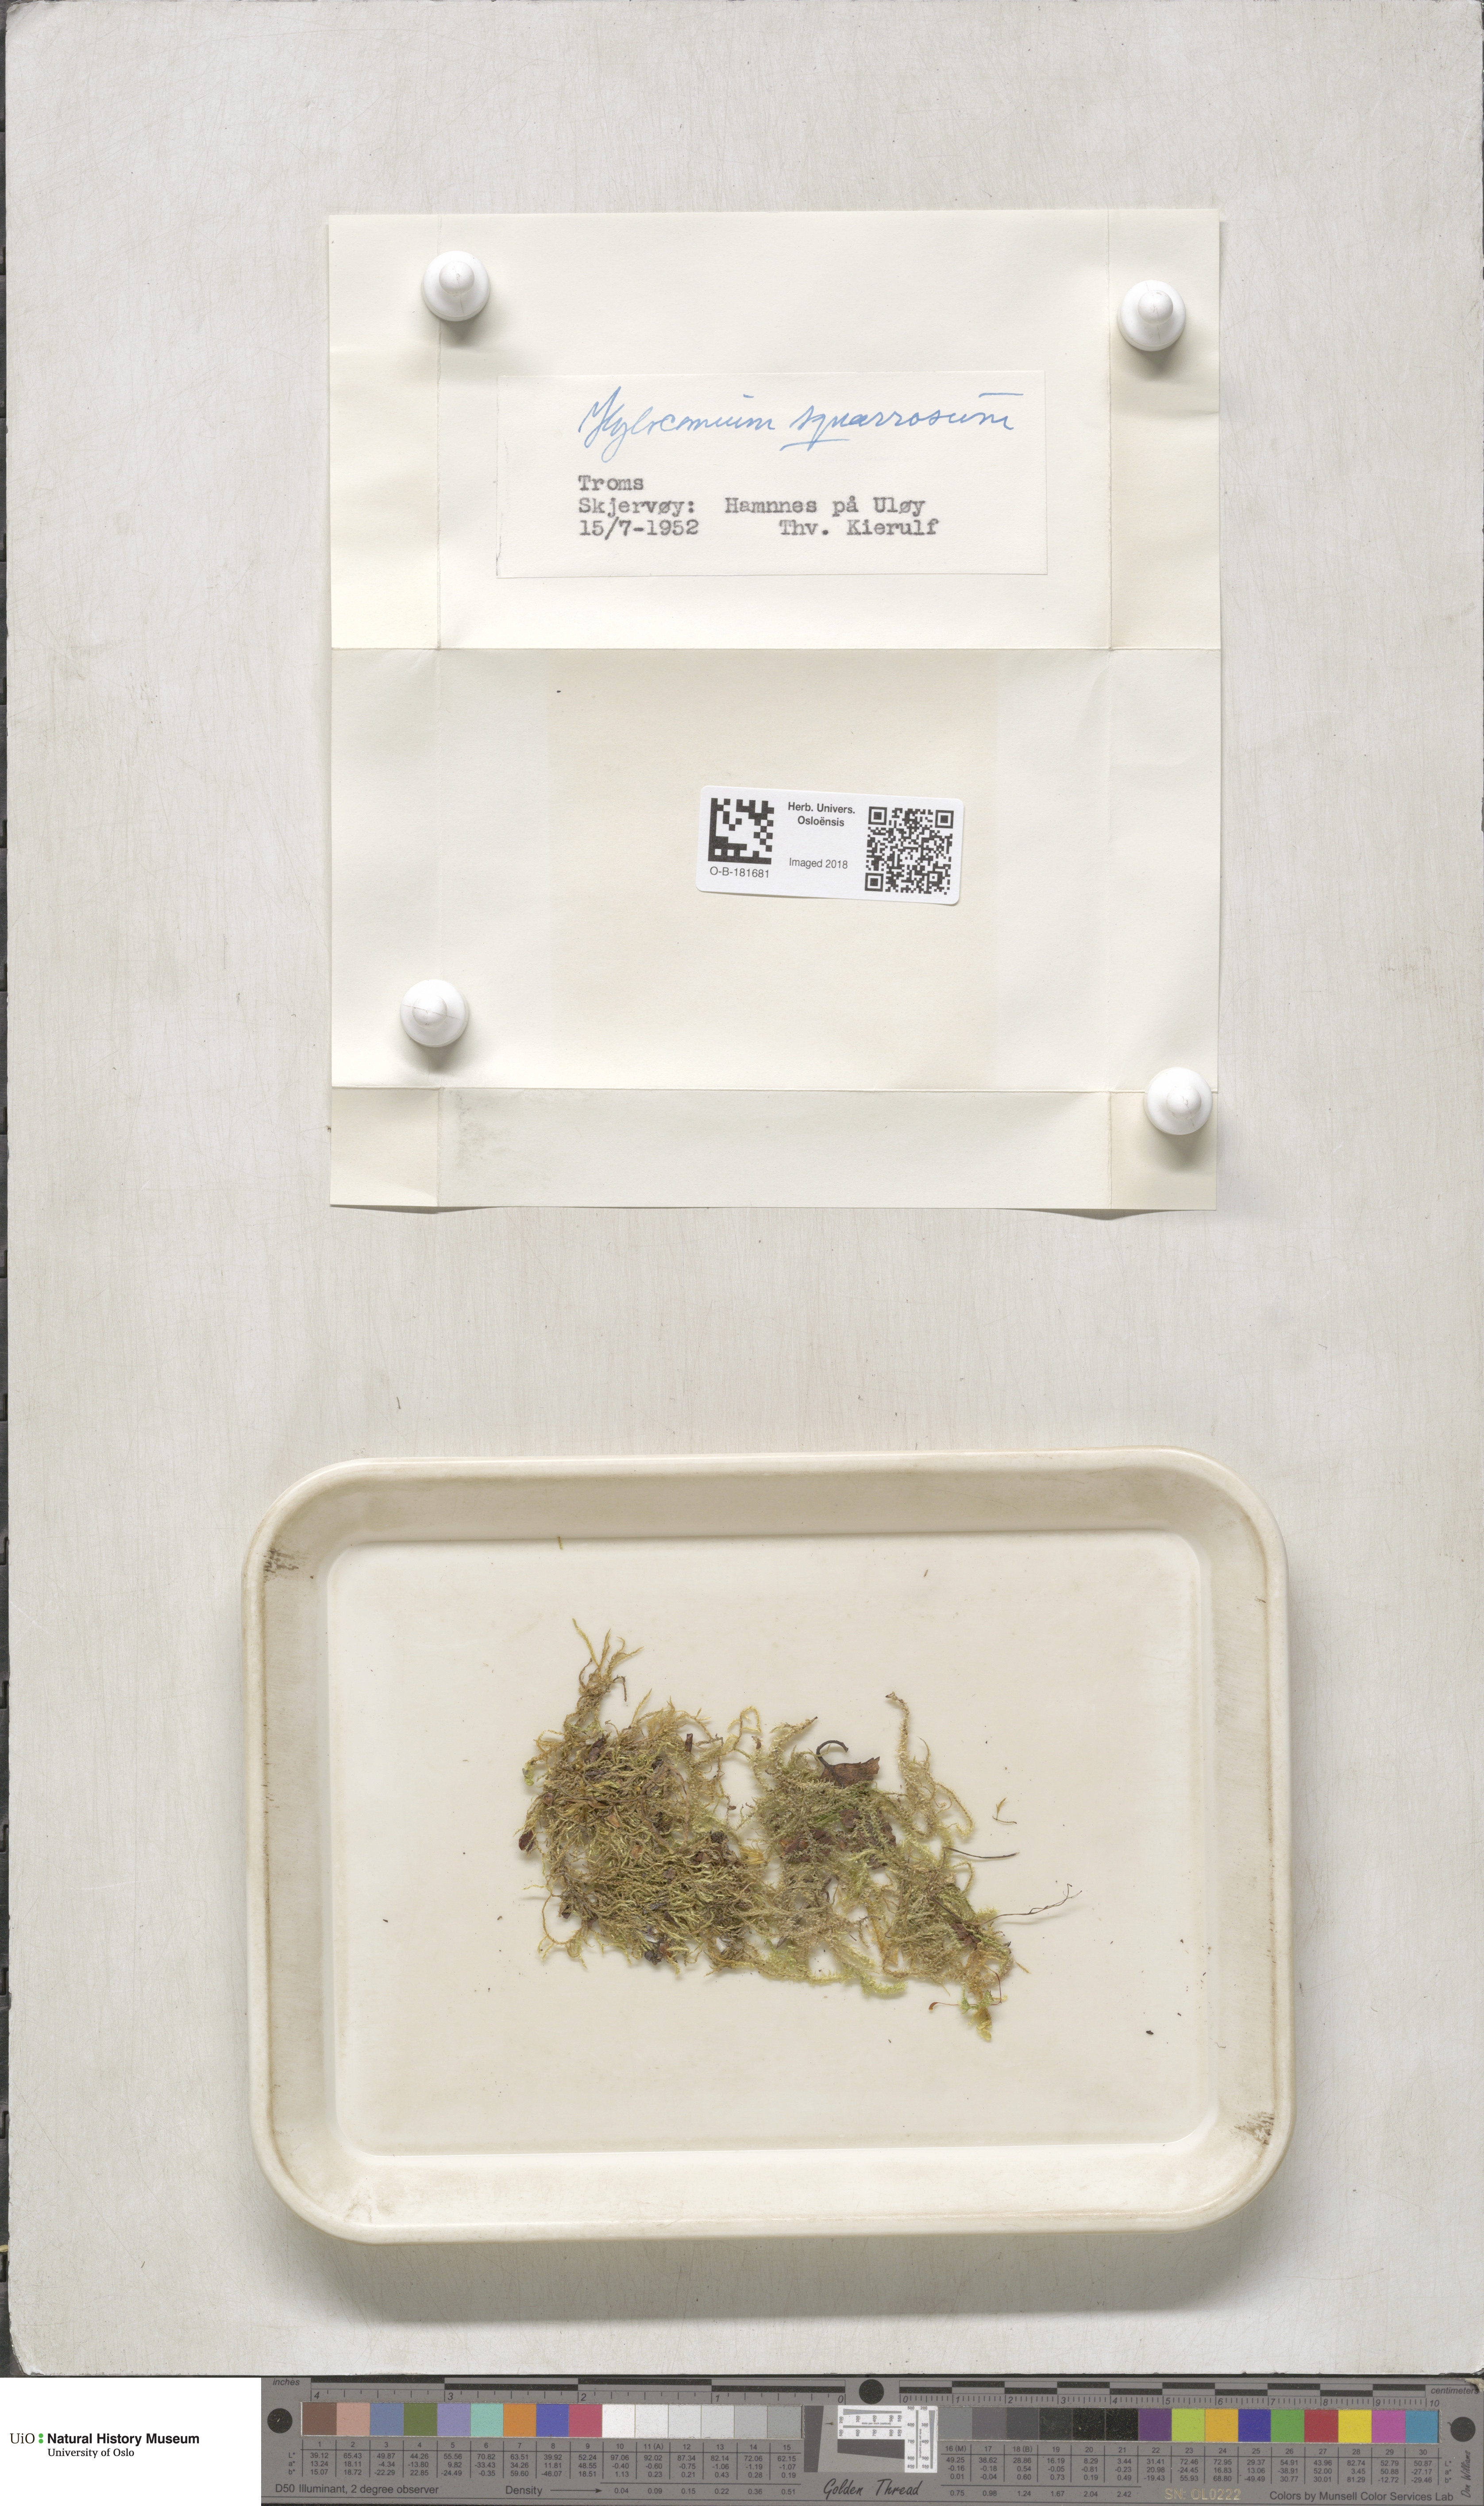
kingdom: Plantae
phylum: Bryophyta
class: Bryopsida
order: Hypnales
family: Hylocomiaceae
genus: Rhytidiadelphus
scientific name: Rhytidiadelphus squarrosus
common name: Springy turf-moss
